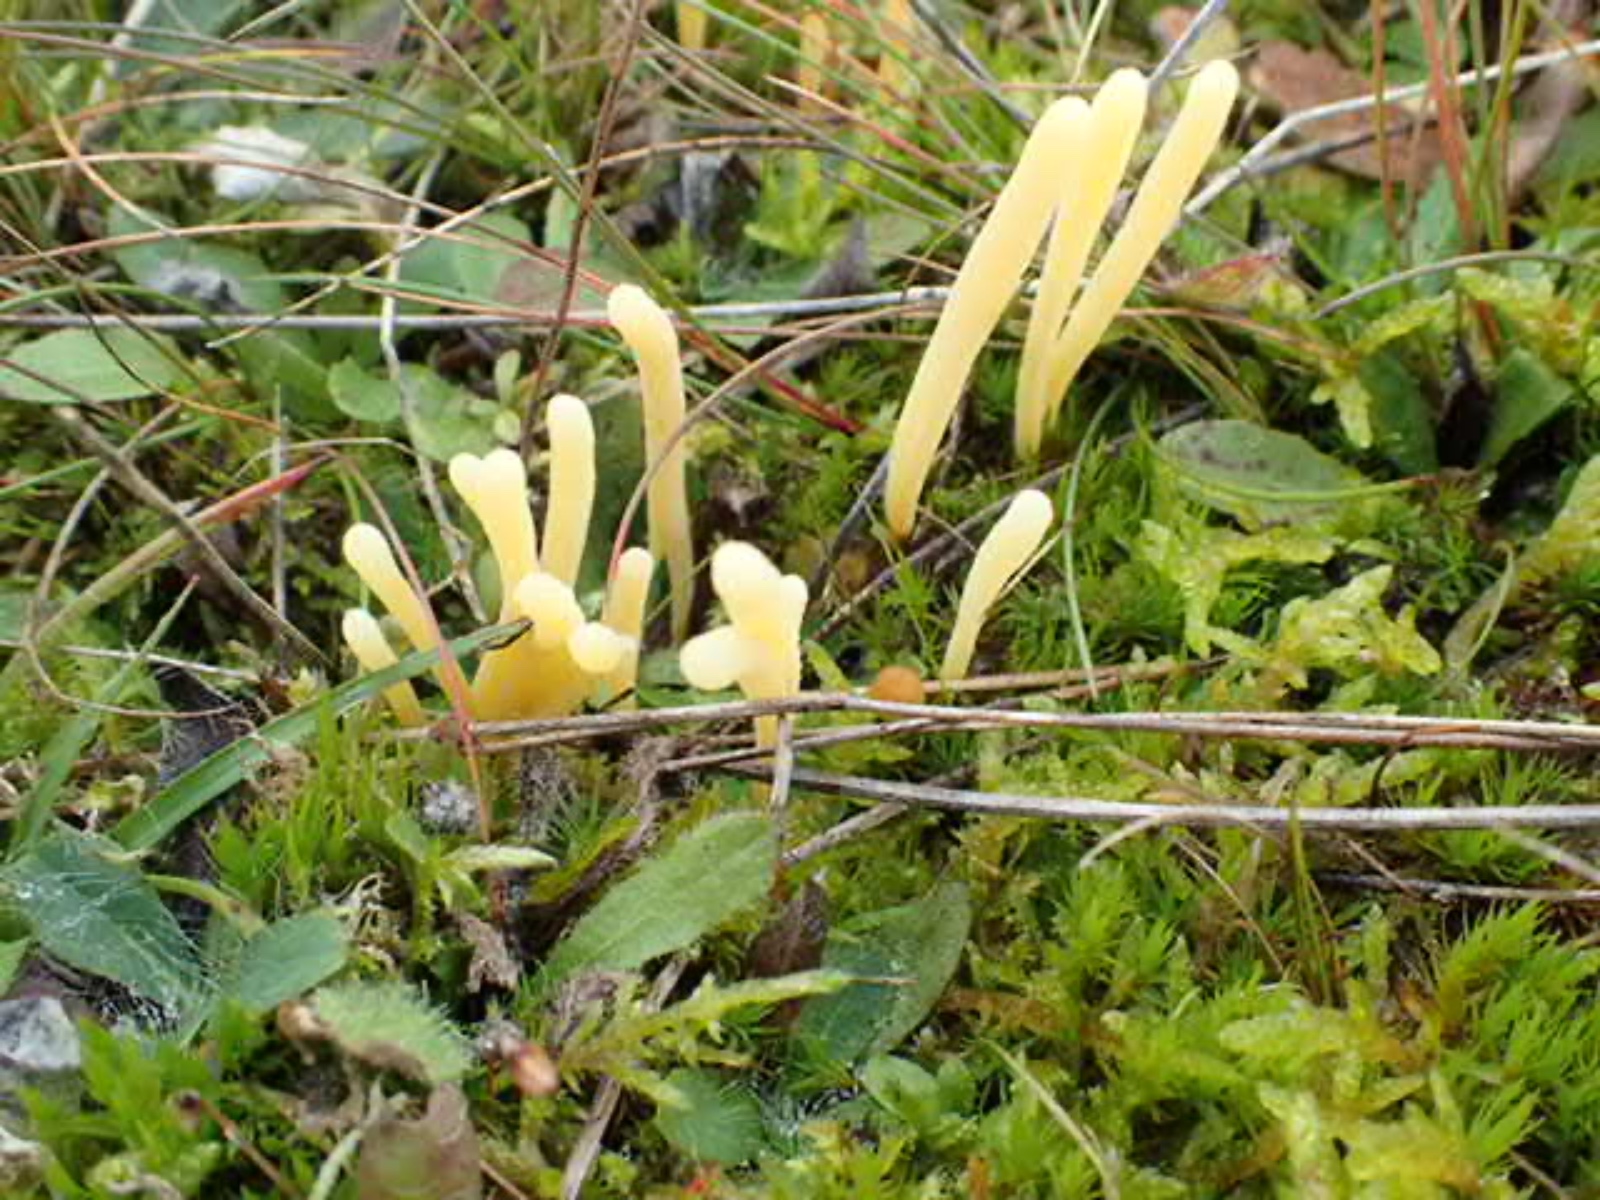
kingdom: Fungi
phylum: Basidiomycota
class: Agaricomycetes
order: Agaricales
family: Clavariaceae
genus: Clavaria
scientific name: Clavaria argillacea
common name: lerfarvet køllesvamp
